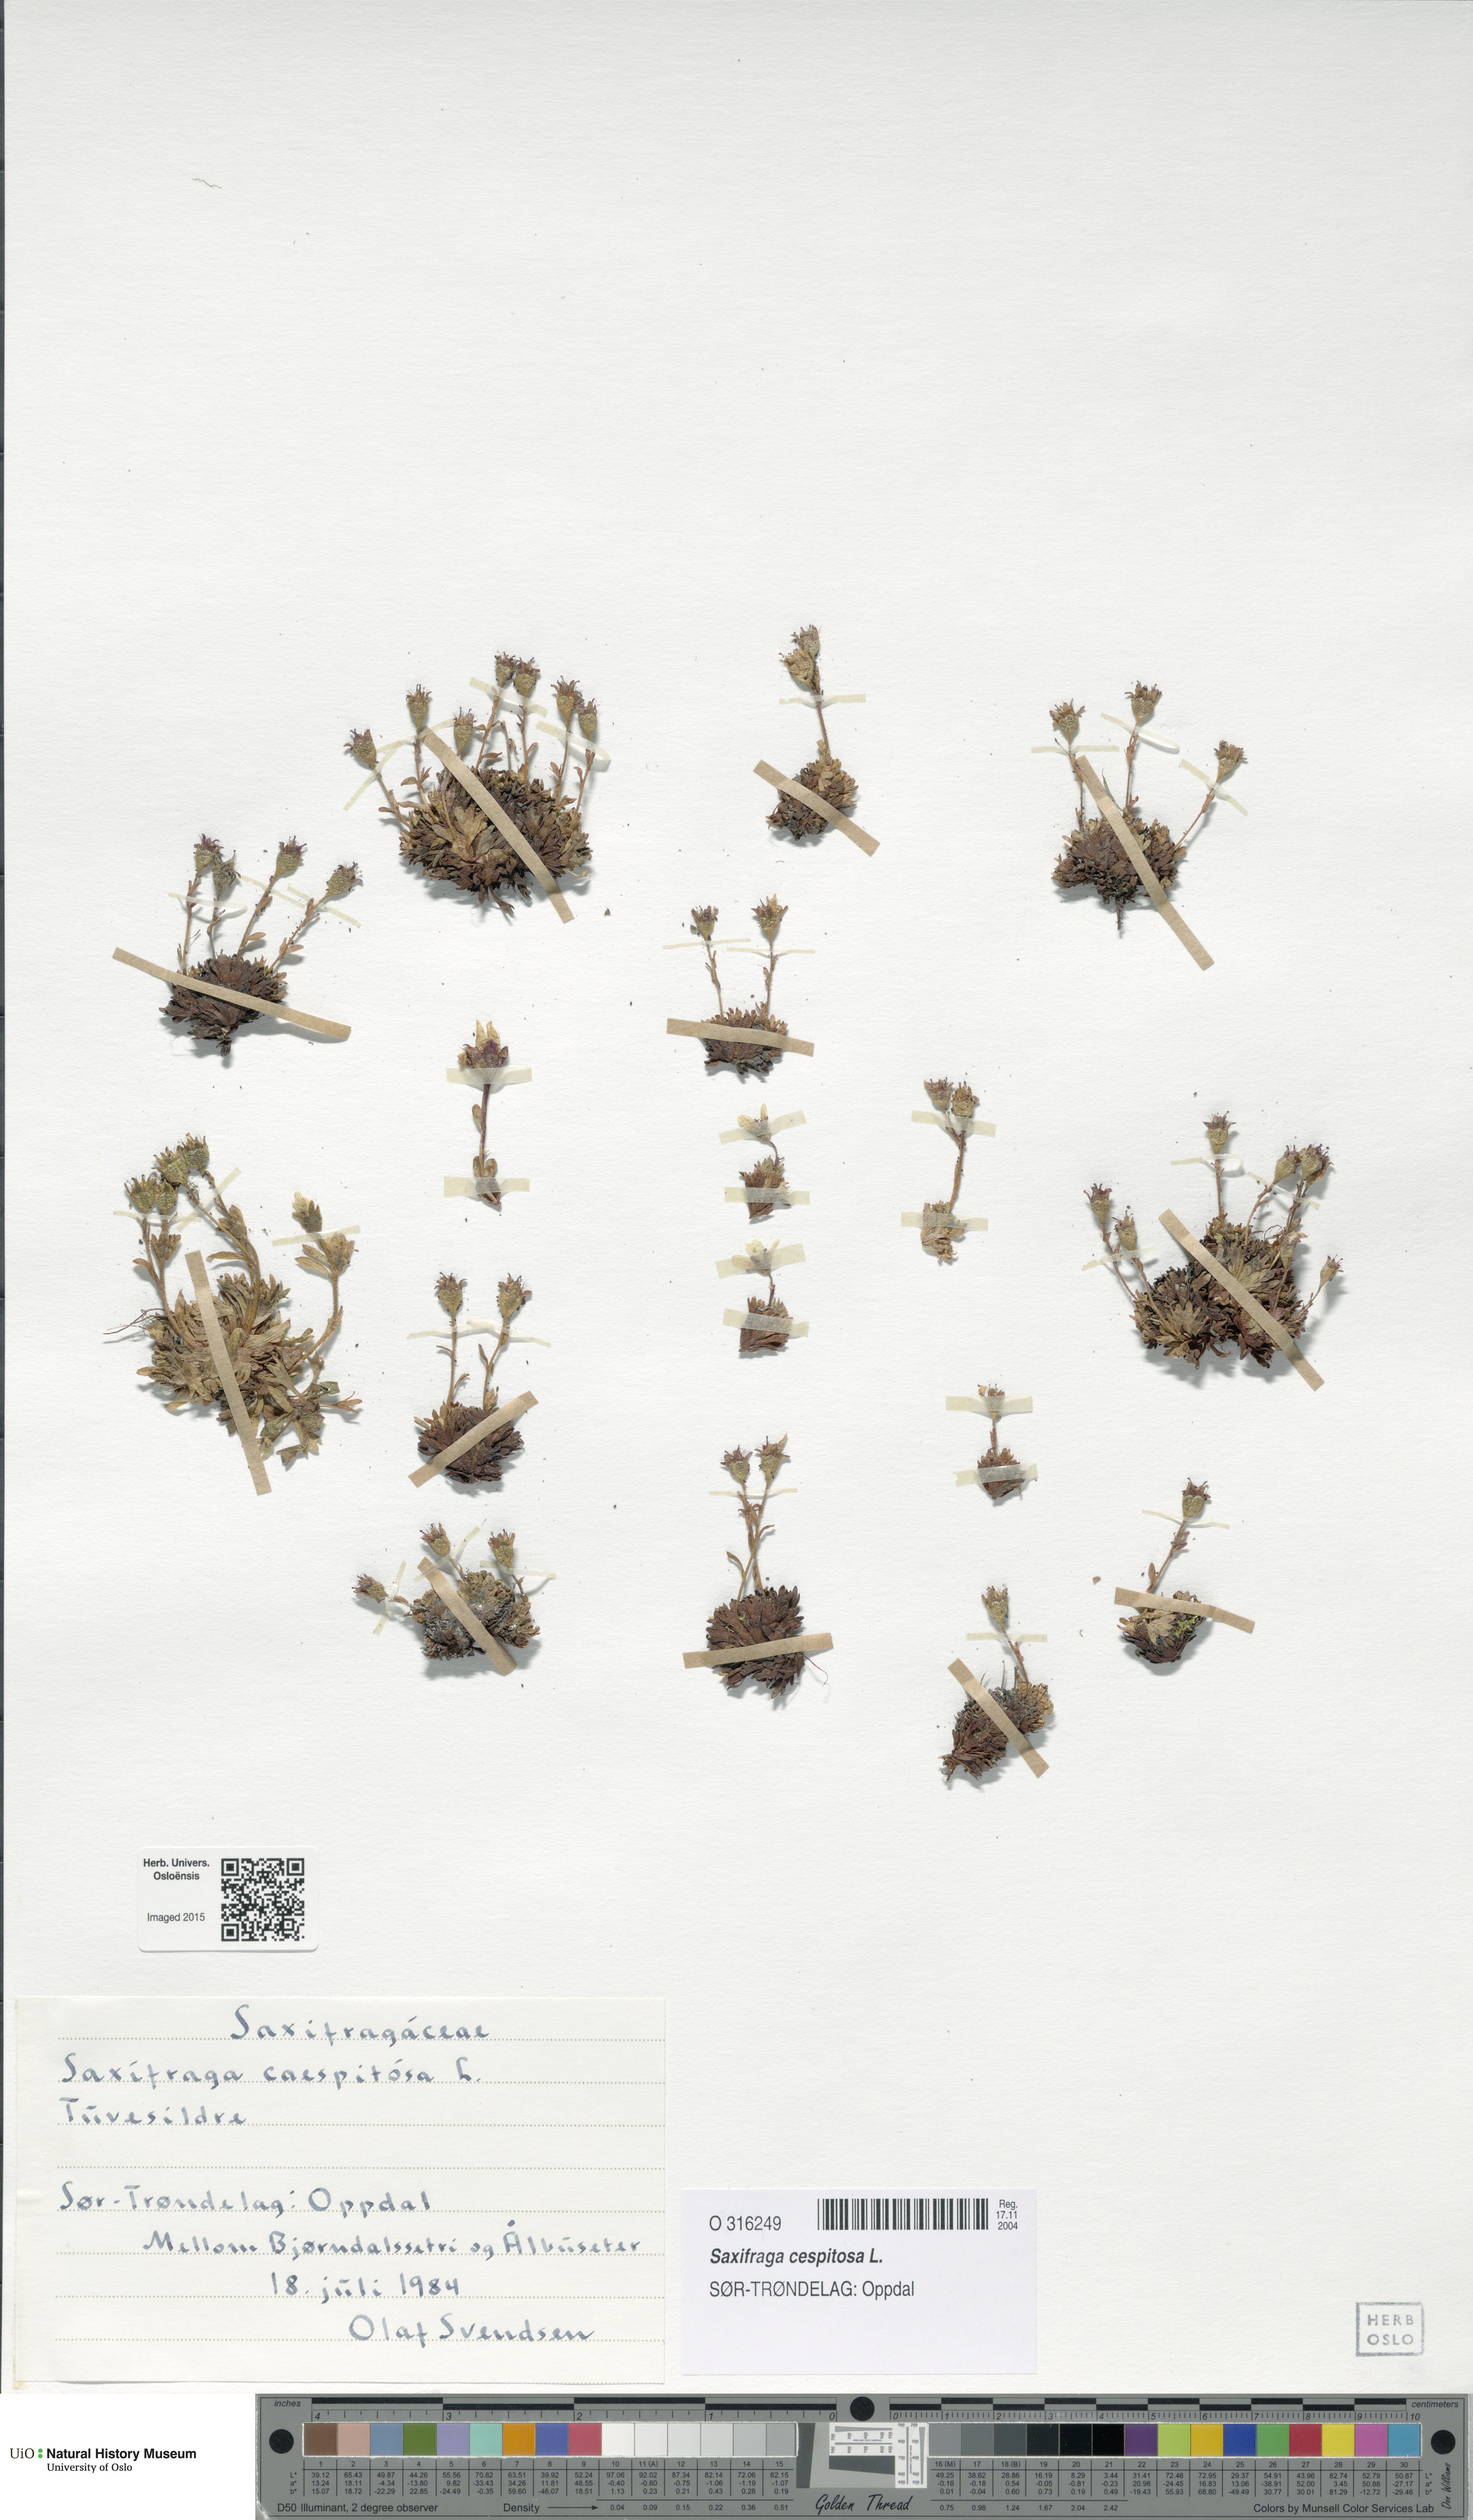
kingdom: Plantae
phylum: Tracheophyta
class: Magnoliopsida
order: Saxifragales
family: Saxifragaceae
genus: Saxifraga
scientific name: Saxifraga cespitosa
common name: Tufted saxifrage
